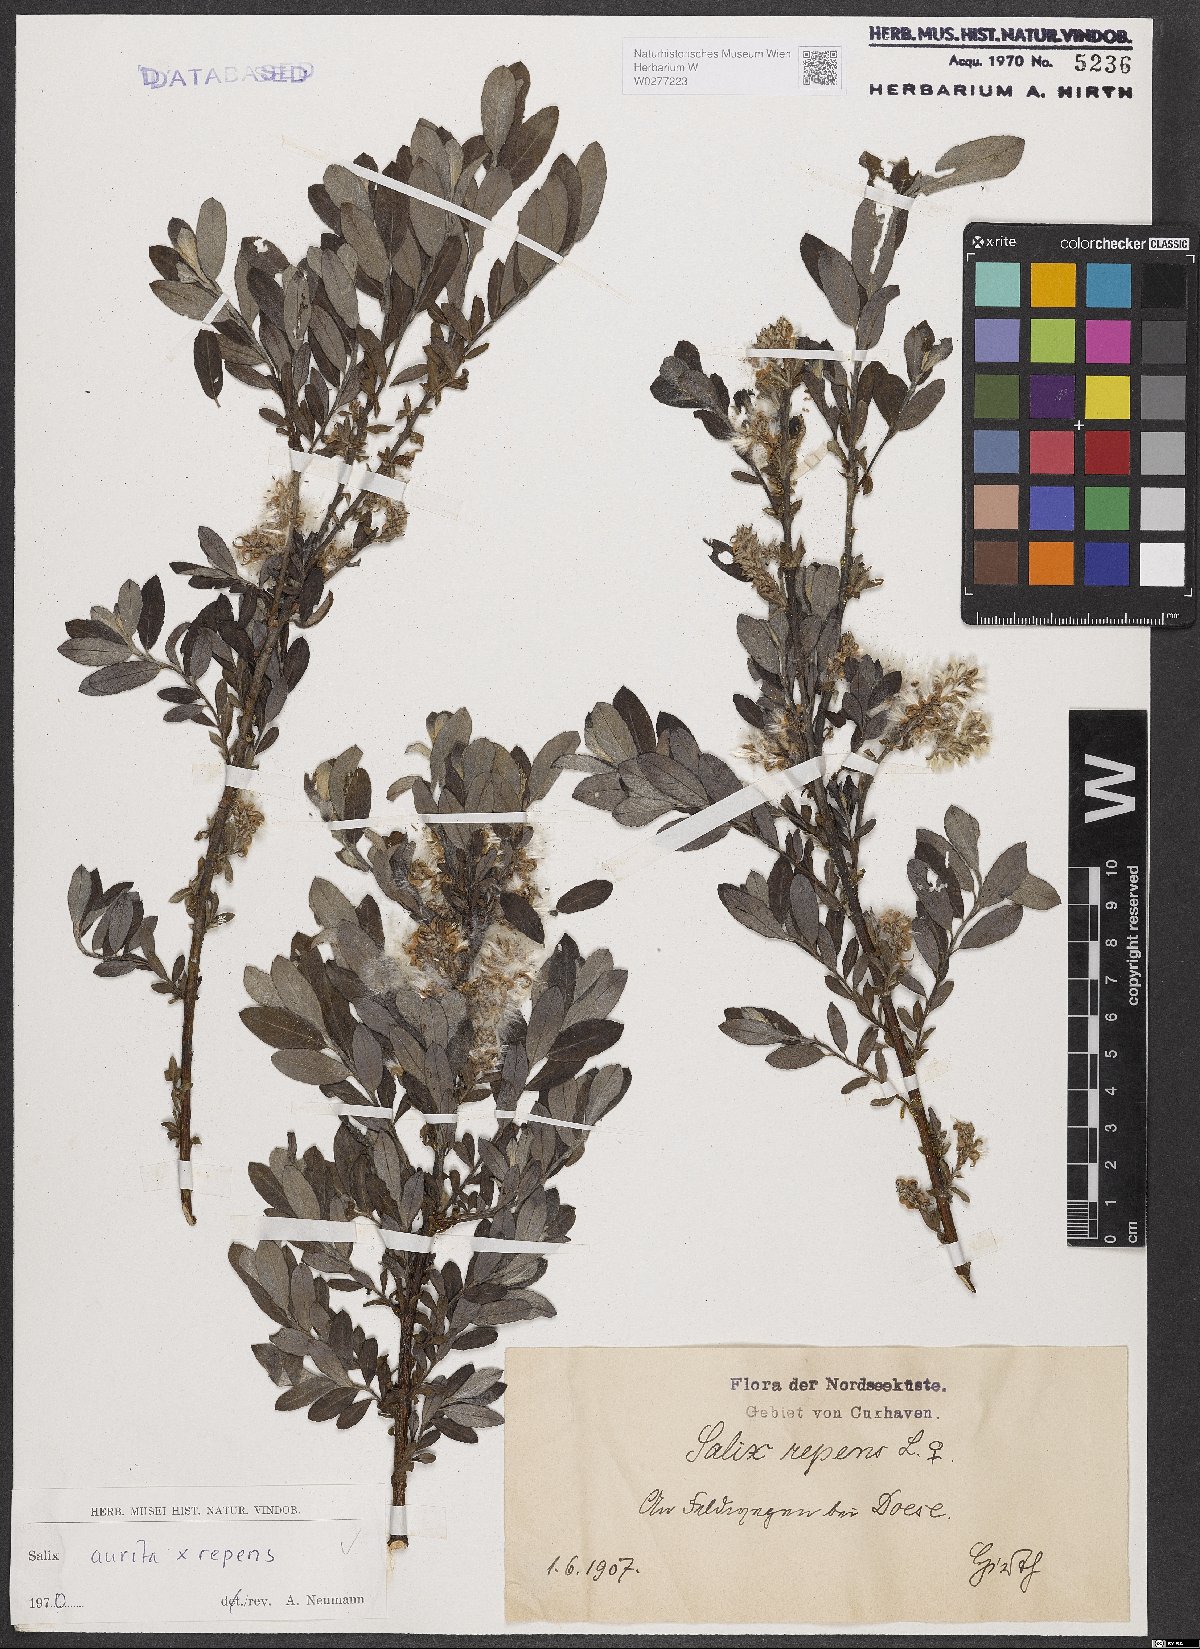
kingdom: Plantae
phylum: Tracheophyta
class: Magnoliopsida
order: Malpighiales
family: Salicaceae
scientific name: Salicaceae
